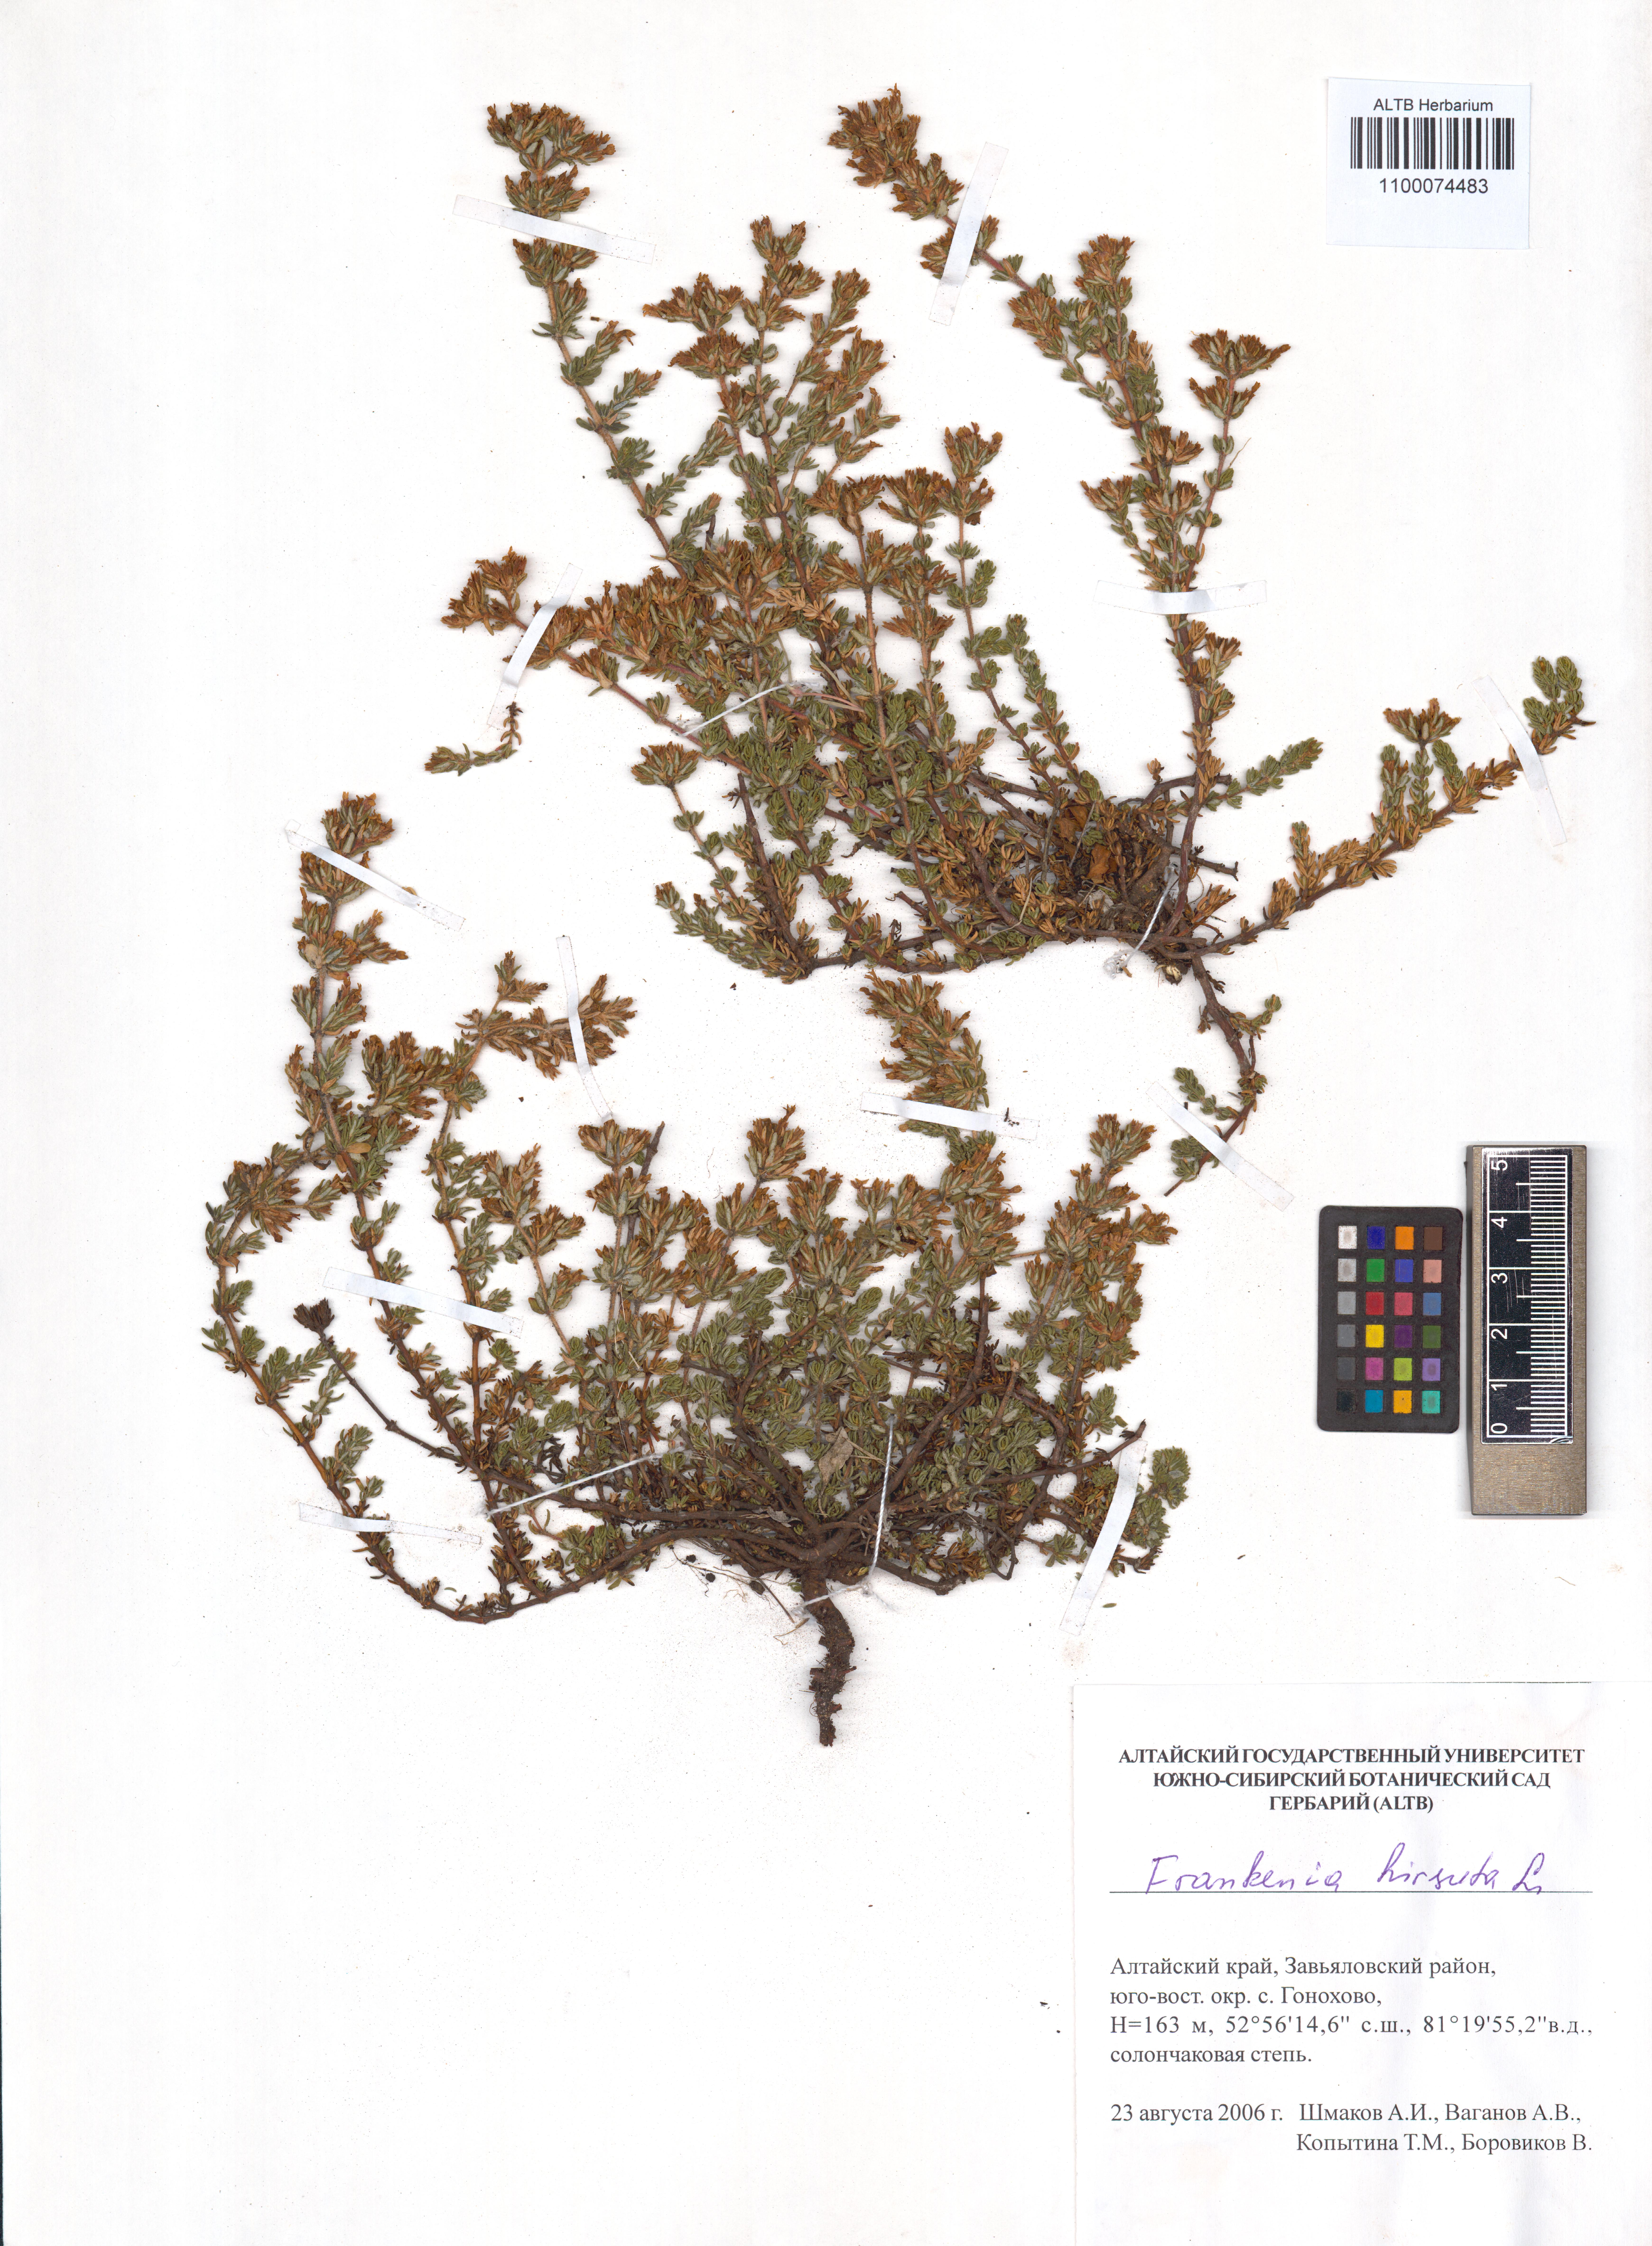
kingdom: Plantae
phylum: Tracheophyta
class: Magnoliopsida
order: Caryophyllales
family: Frankeniaceae
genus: Frankenia
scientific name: Frankenia hirsuta
